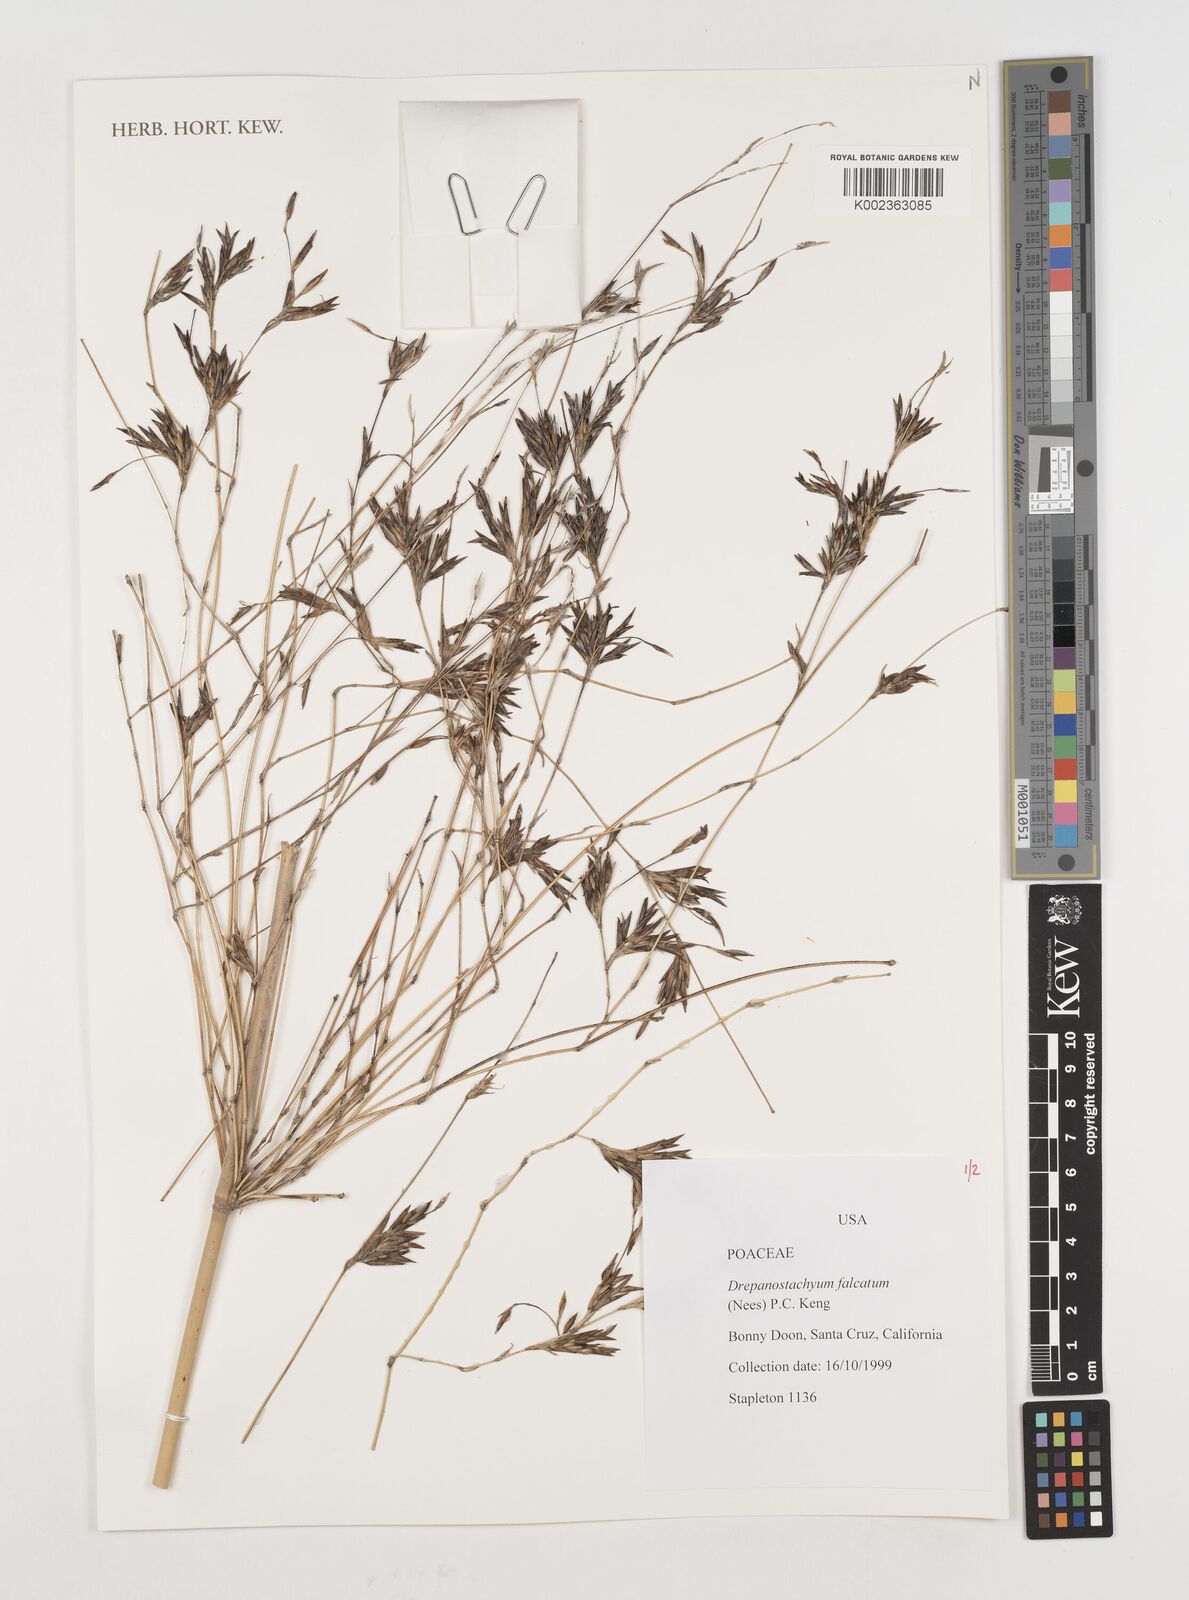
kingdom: Plantae
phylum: Tracheophyta
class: Liliopsida
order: Poales
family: Poaceae
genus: Drepanostachyum
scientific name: Drepanostachyum falcatum
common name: Himalayan bamboo
